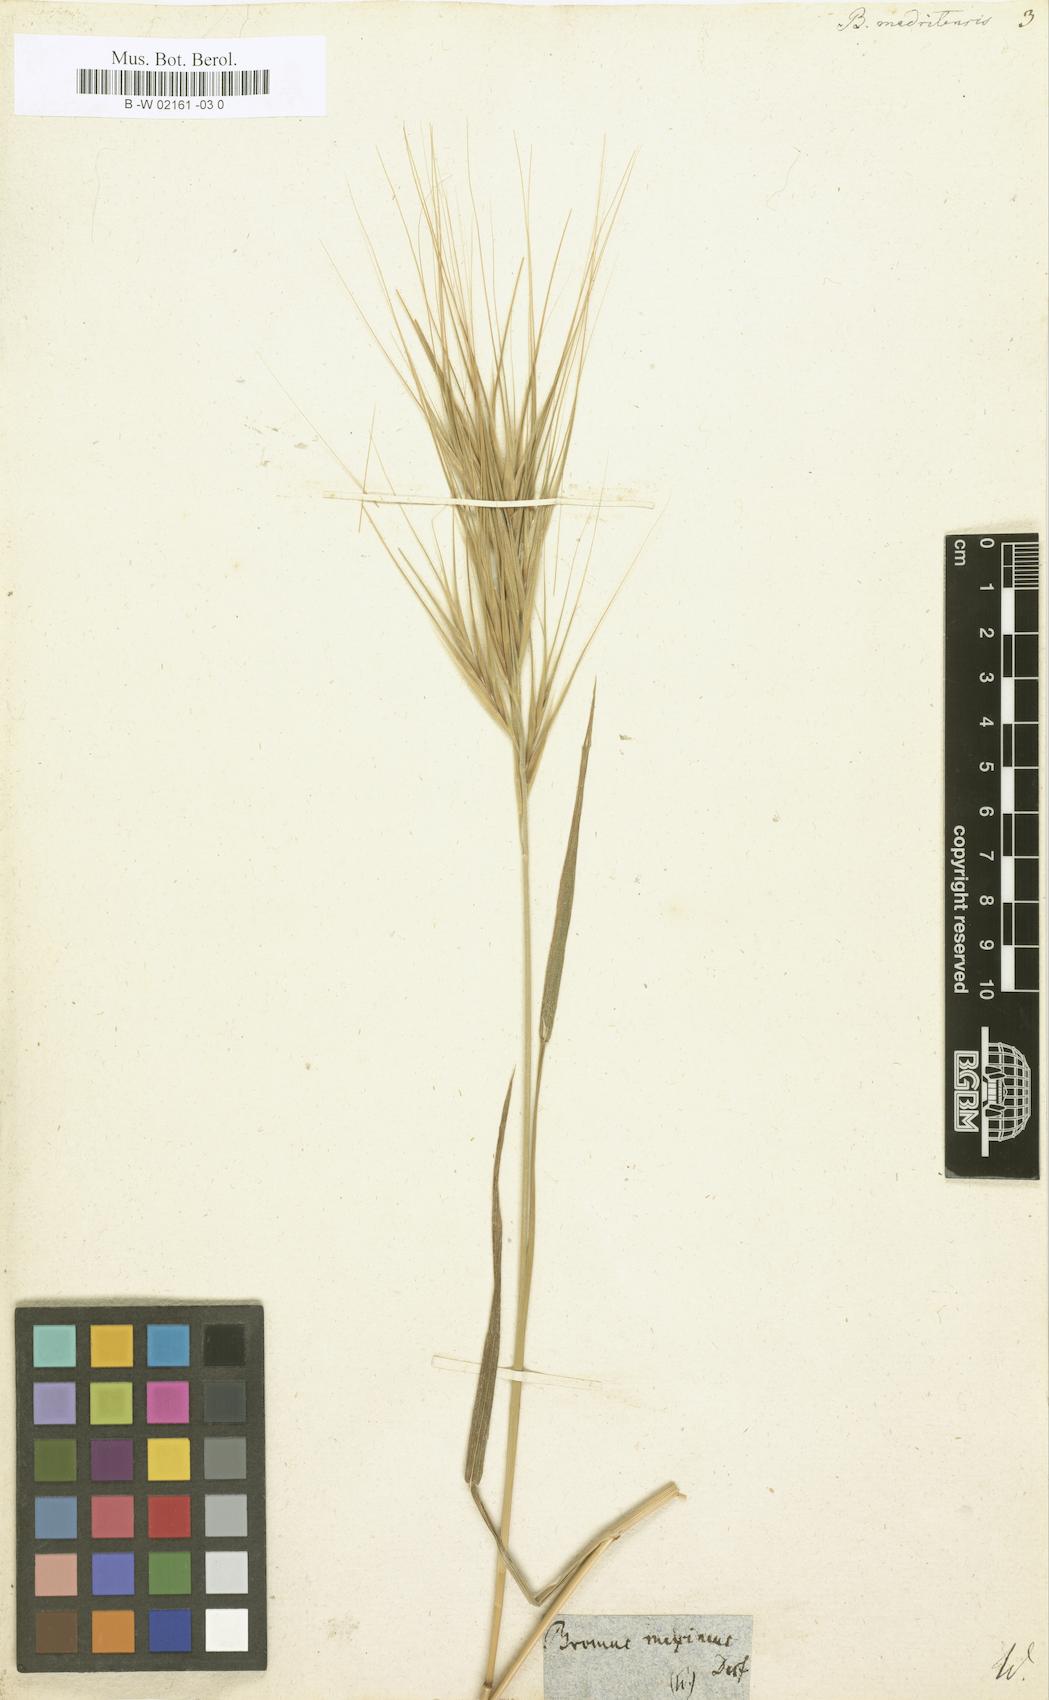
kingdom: Plantae
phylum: Tracheophyta
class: Liliopsida
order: Poales
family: Poaceae
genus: Bromus
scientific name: Bromus madritensis
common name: Compact brome
